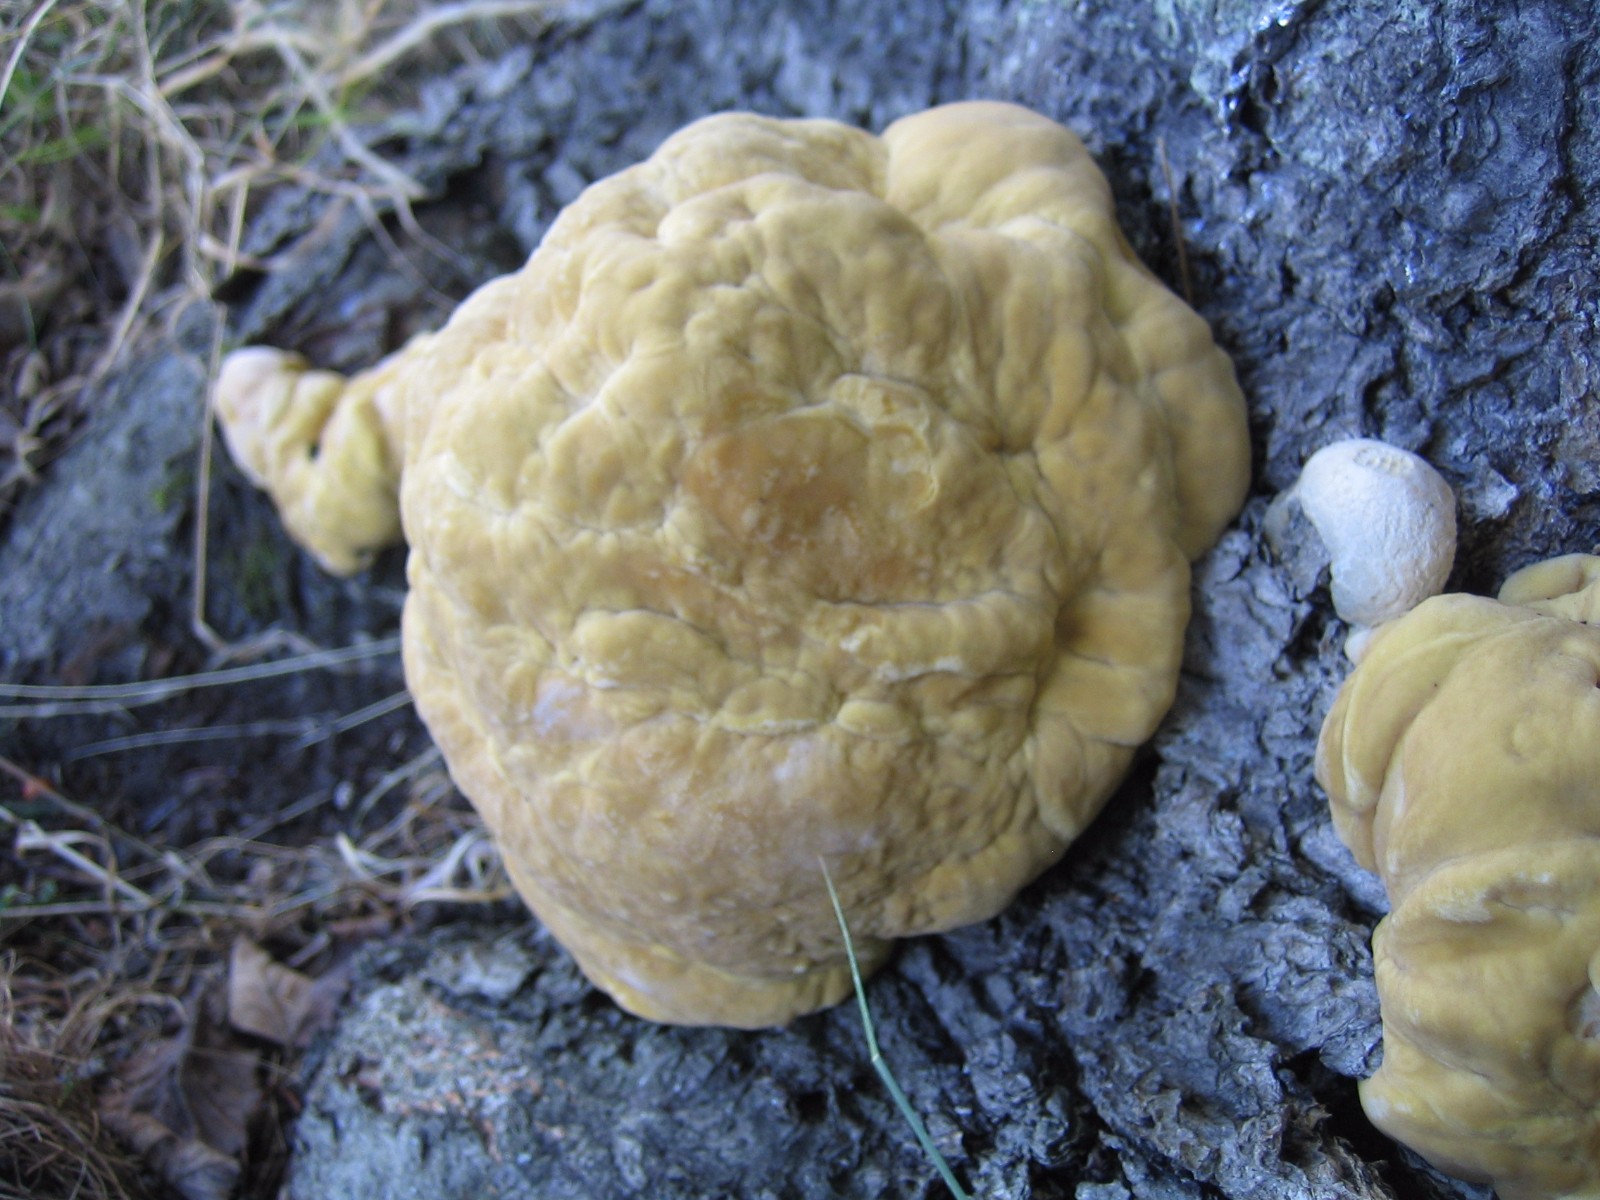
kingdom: Fungi
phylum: Basidiomycota
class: Agaricomycetes
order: Polyporales
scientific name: Polyporales
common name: poresvampordenen
